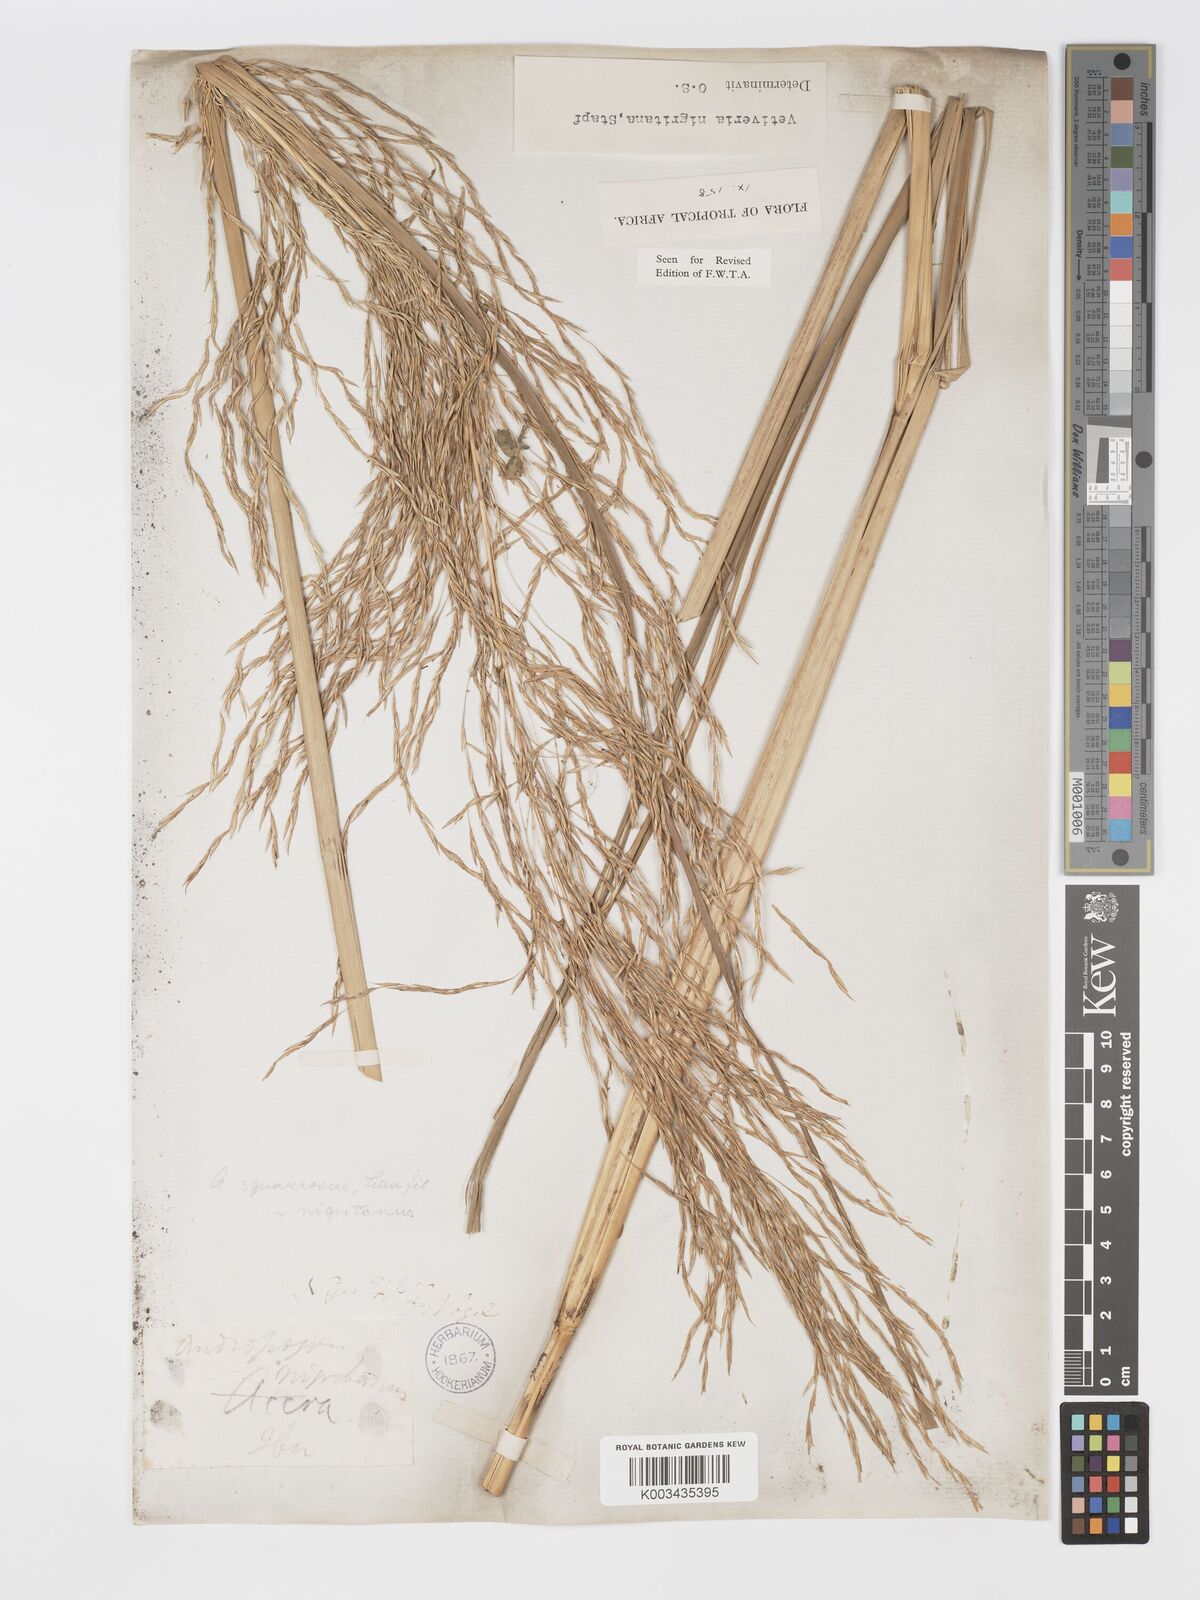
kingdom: Plantae
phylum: Tracheophyta
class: Liliopsida
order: Poales
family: Poaceae
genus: Chrysopogon
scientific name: Chrysopogon nigritanus
